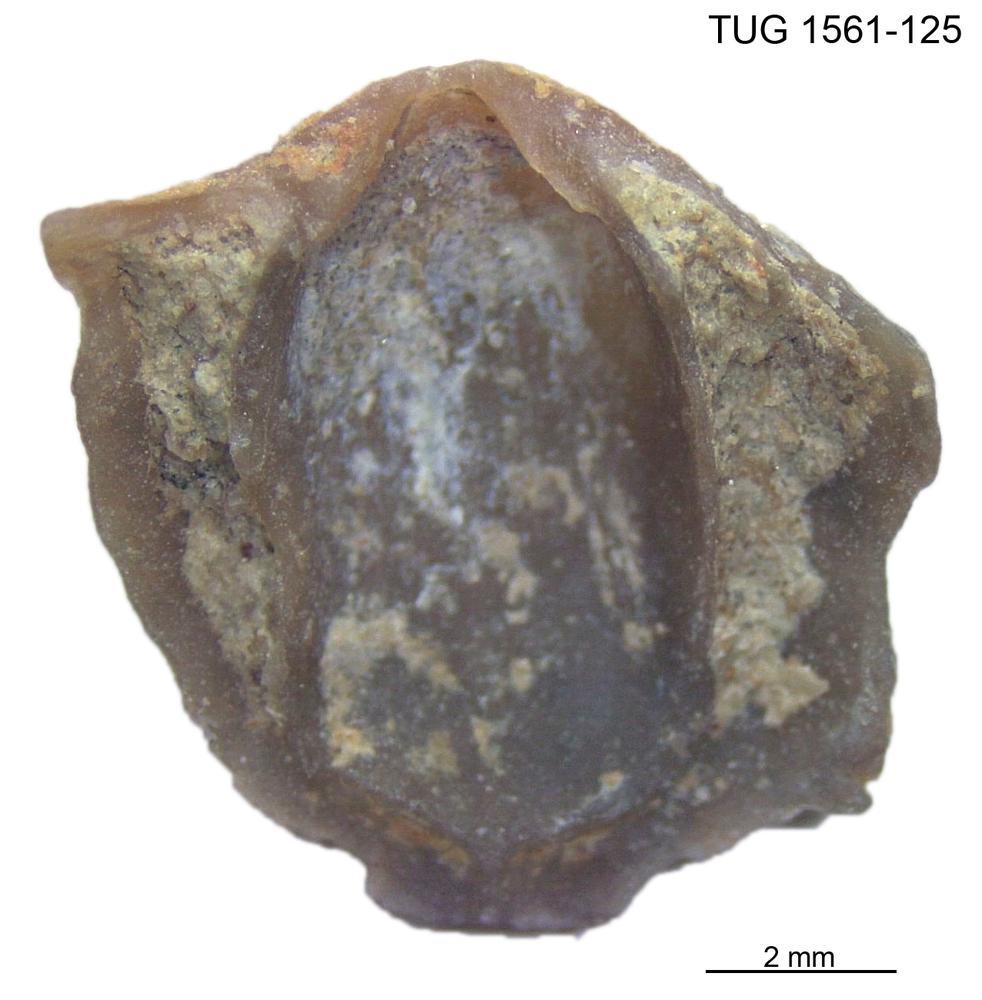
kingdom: Animalia
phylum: Brachiopoda
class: Rhynchonellata
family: Linoporellidae
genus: Linoporella
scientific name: Linoporella Orthis punctata
